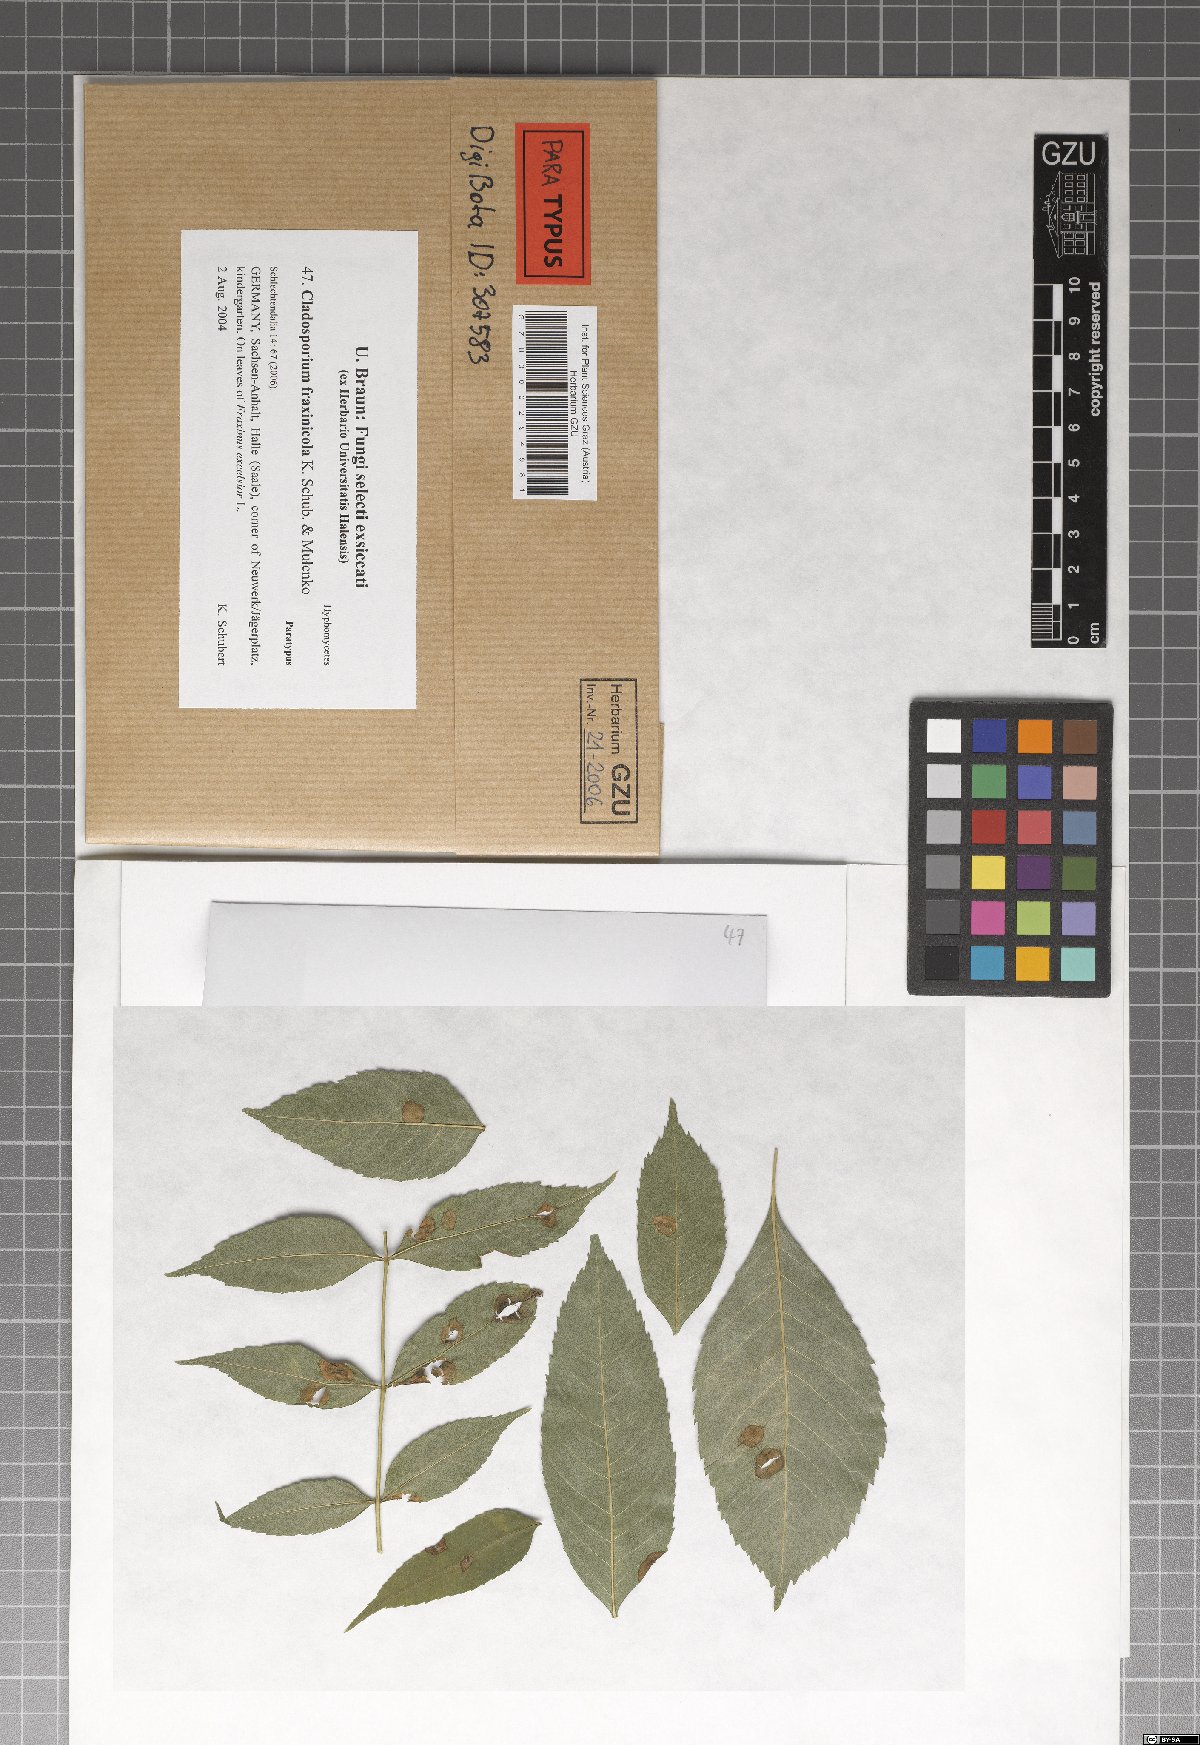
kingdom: Fungi
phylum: Ascomycota
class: Dothideomycetes
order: Capnodiales
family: Cladosporiaceae
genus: Cladosporium
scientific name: Cladosporium fraxinicola
